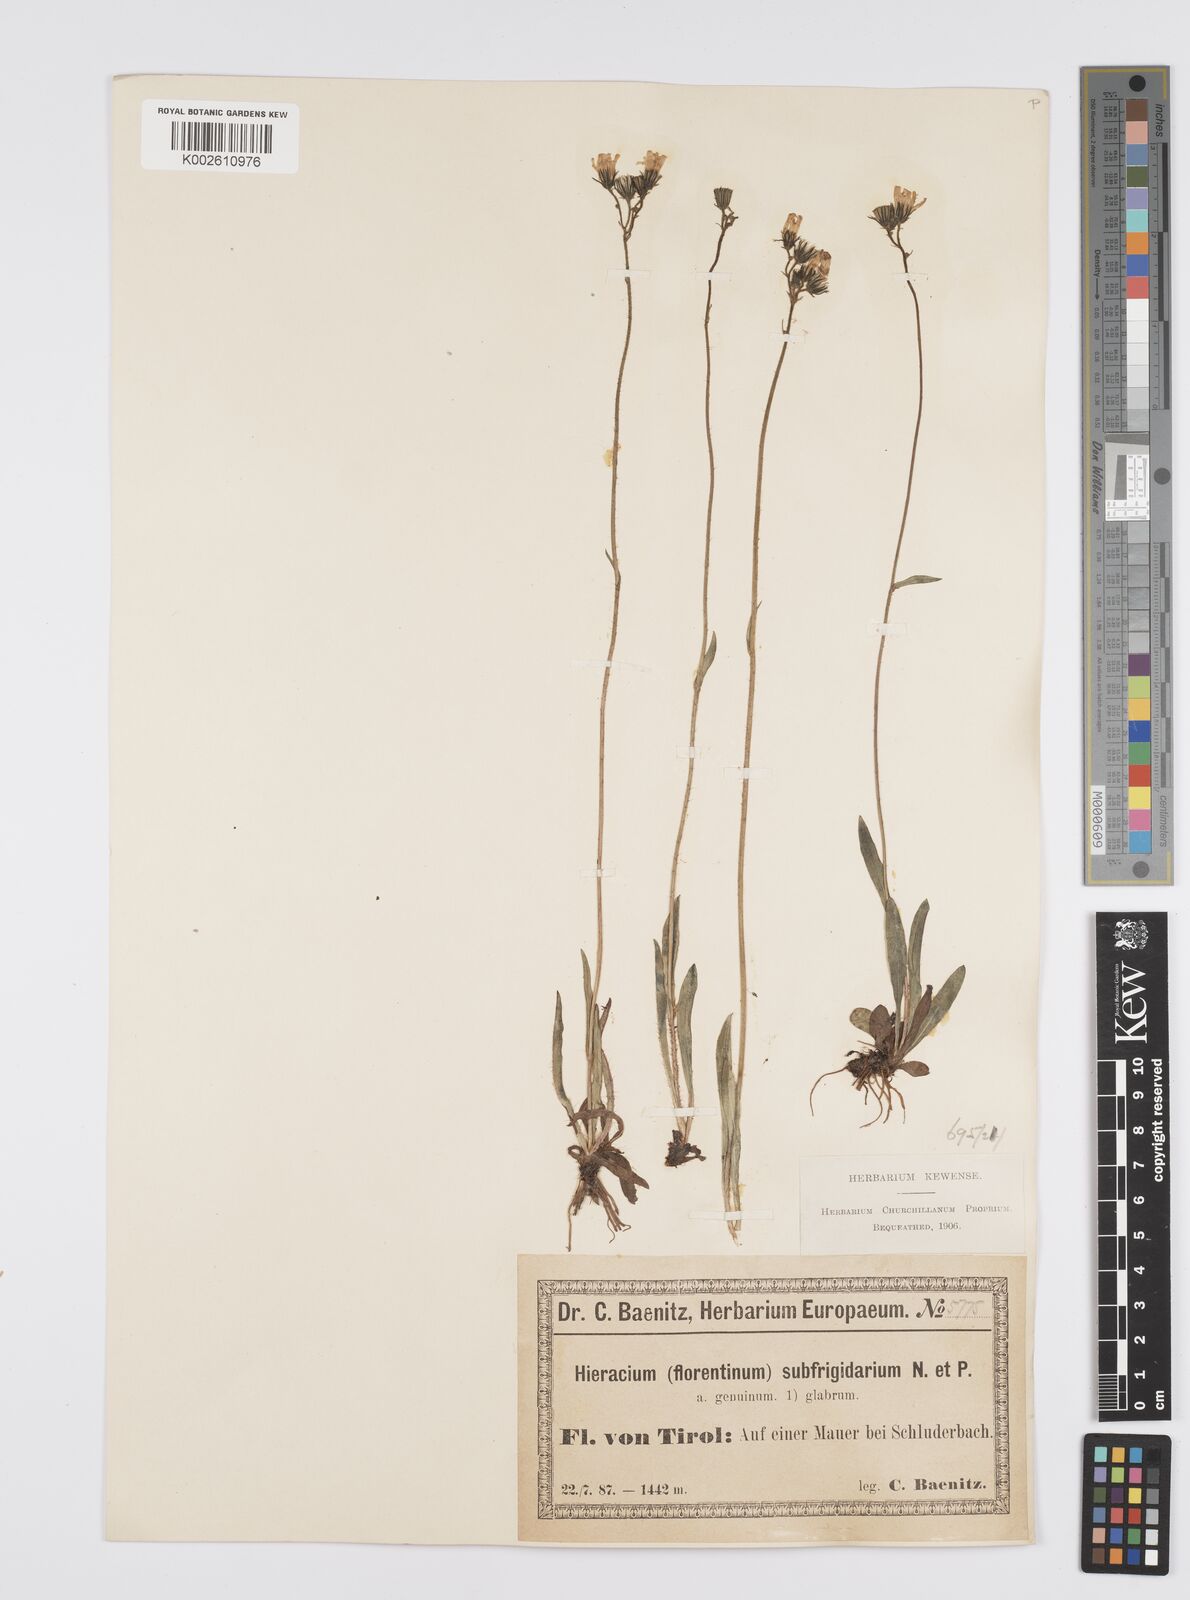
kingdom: Plantae
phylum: Tracheophyta
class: Magnoliopsida
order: Asterales
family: Asteraceae
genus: Pilosella
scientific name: Pilosella piloselloides
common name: Glaucous king-devil
